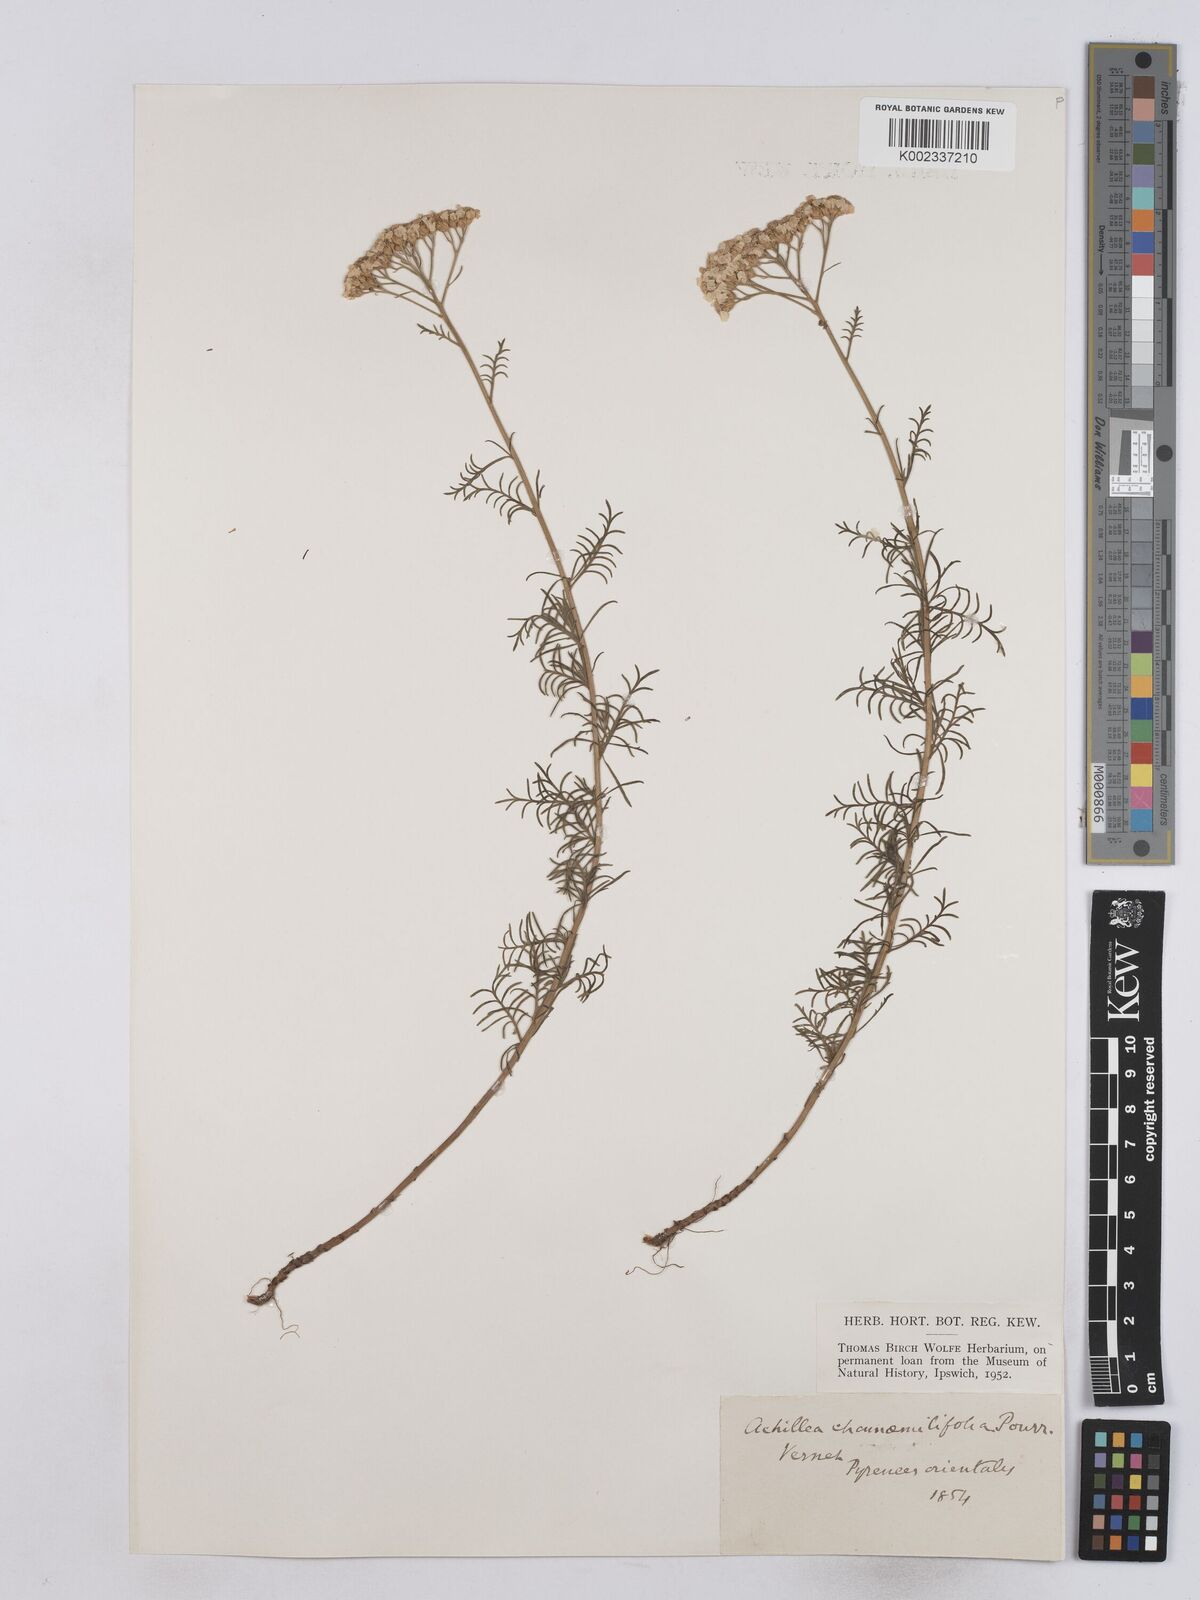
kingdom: Plantae
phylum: Tracheophyta
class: Magnoliopsida
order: Asterales
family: Asteraceae
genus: Achillea
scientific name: Achillea chamaemelifolia
